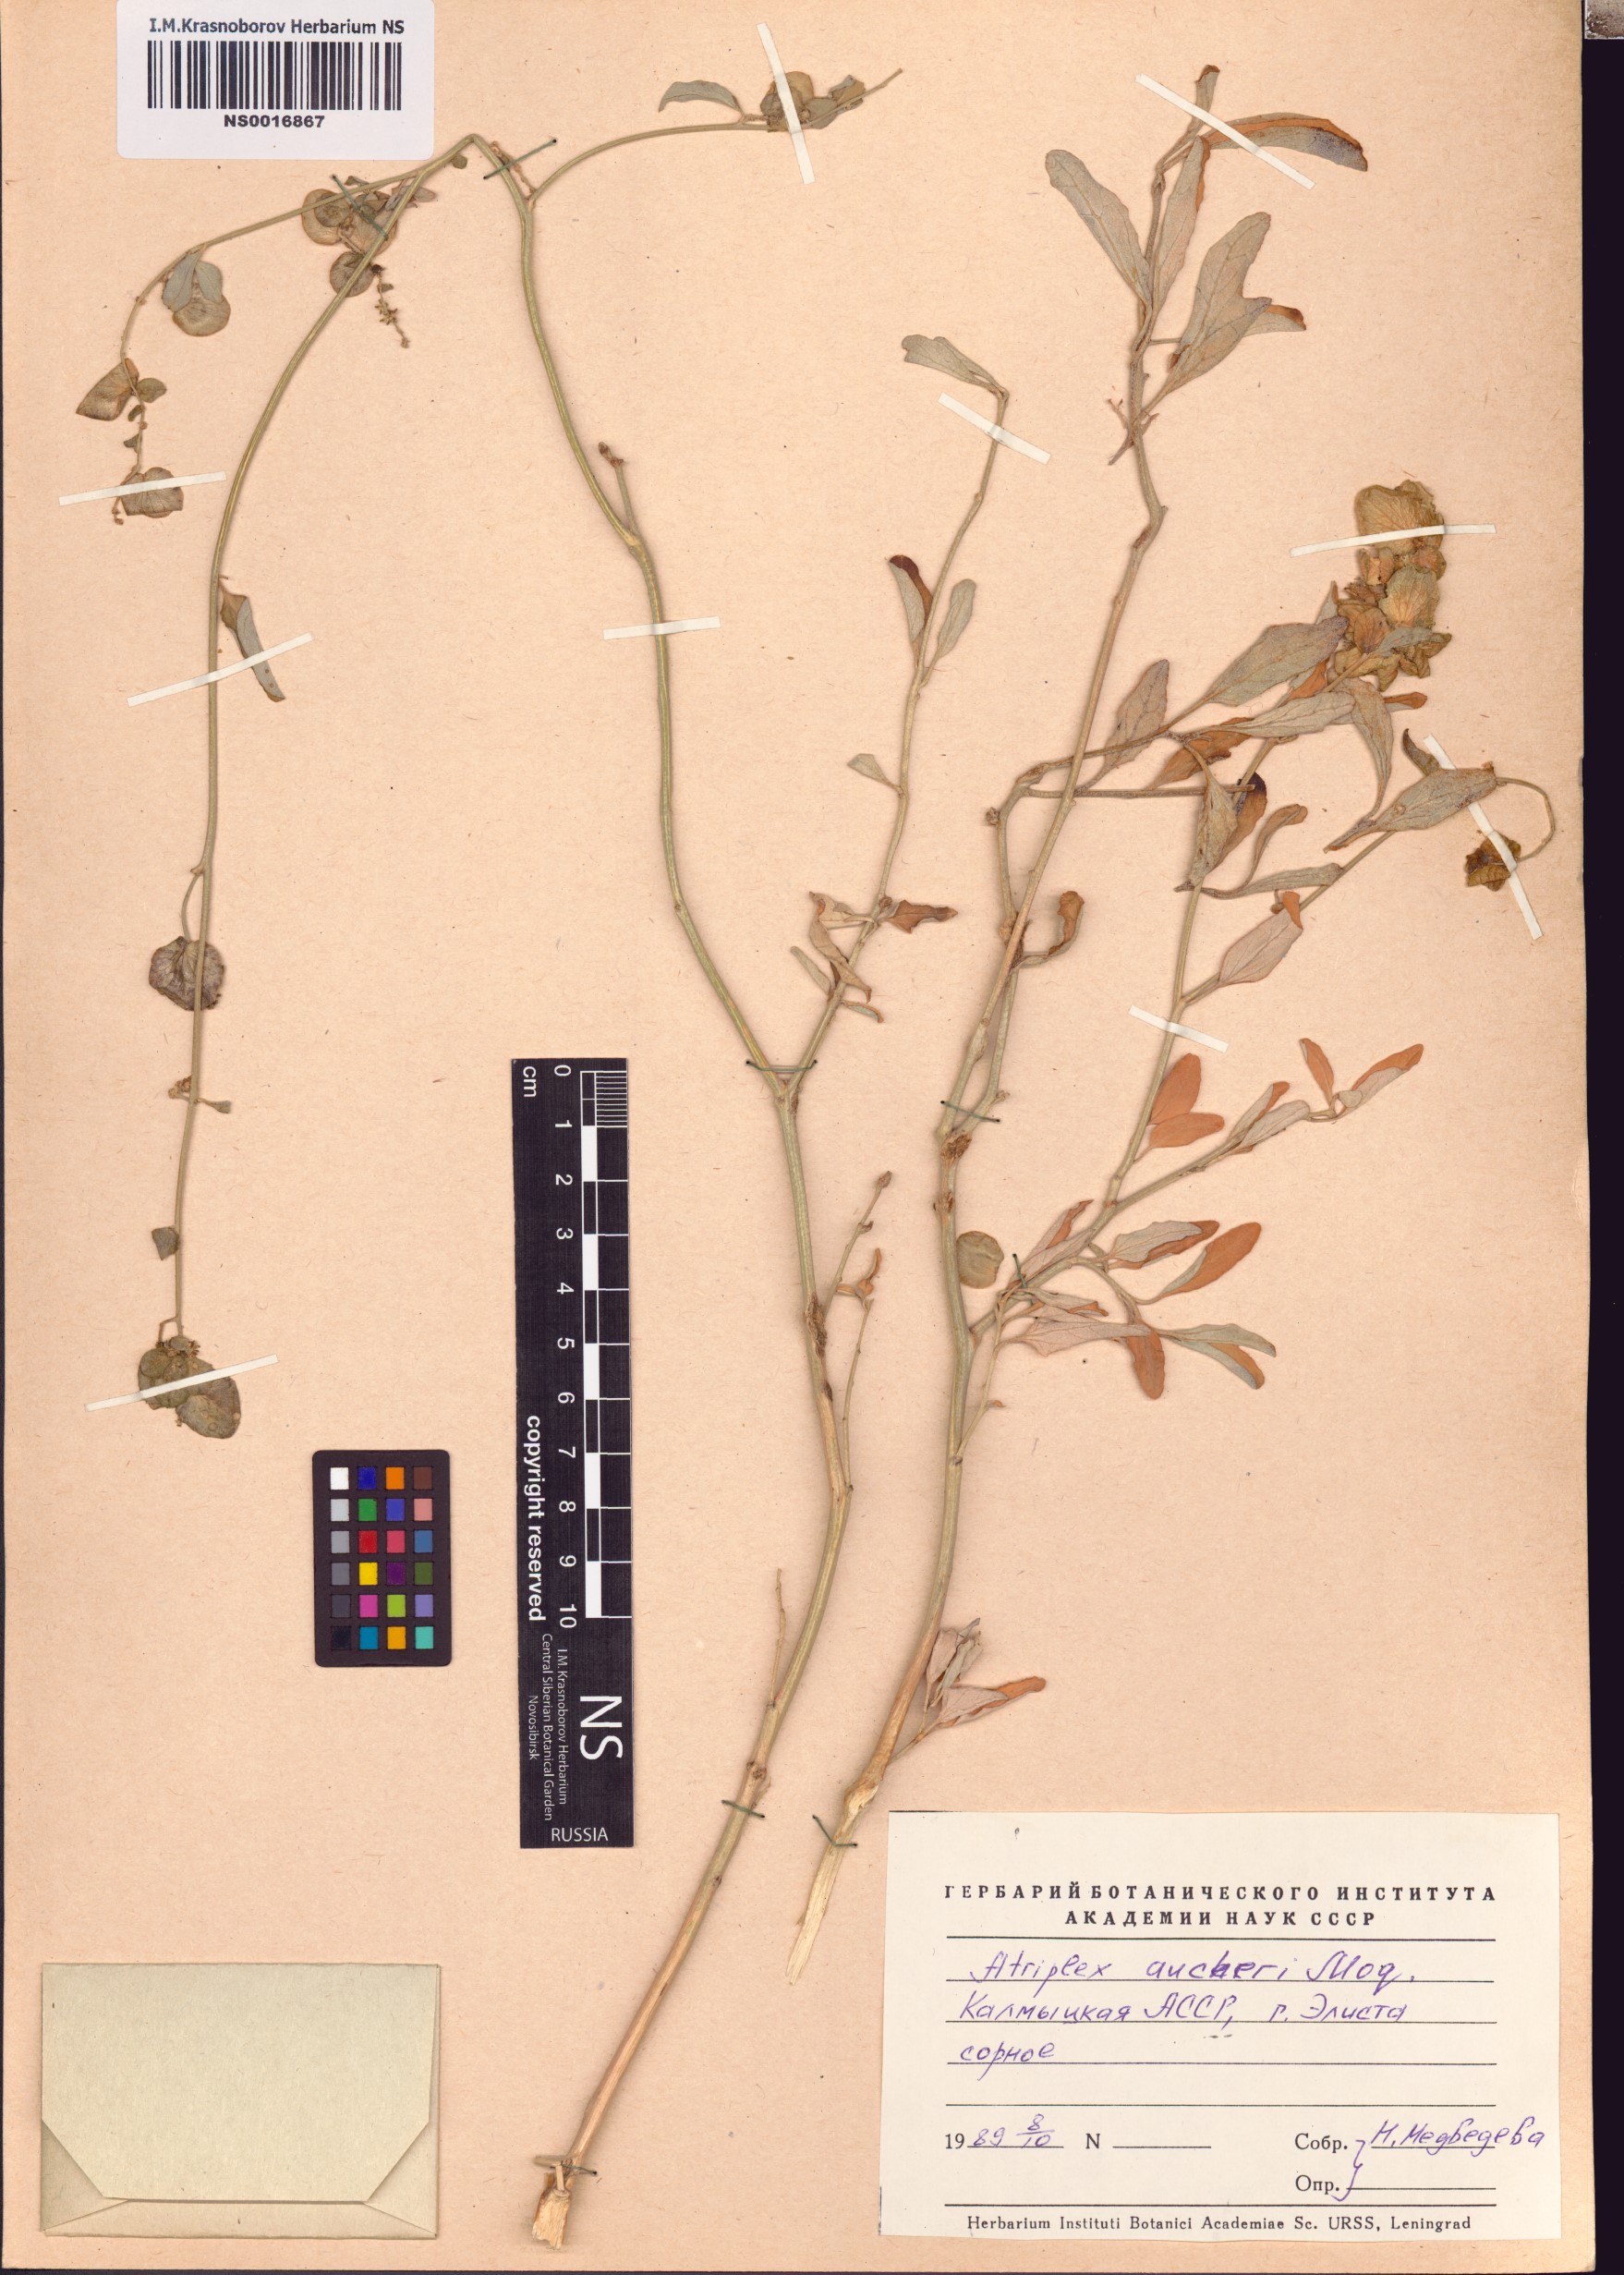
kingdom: Plantae
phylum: Tracheophyta
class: Magnoliopsida
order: Caryophyllales
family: Amaranthaceae
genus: Atriplex
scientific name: Atriplex aucheri
